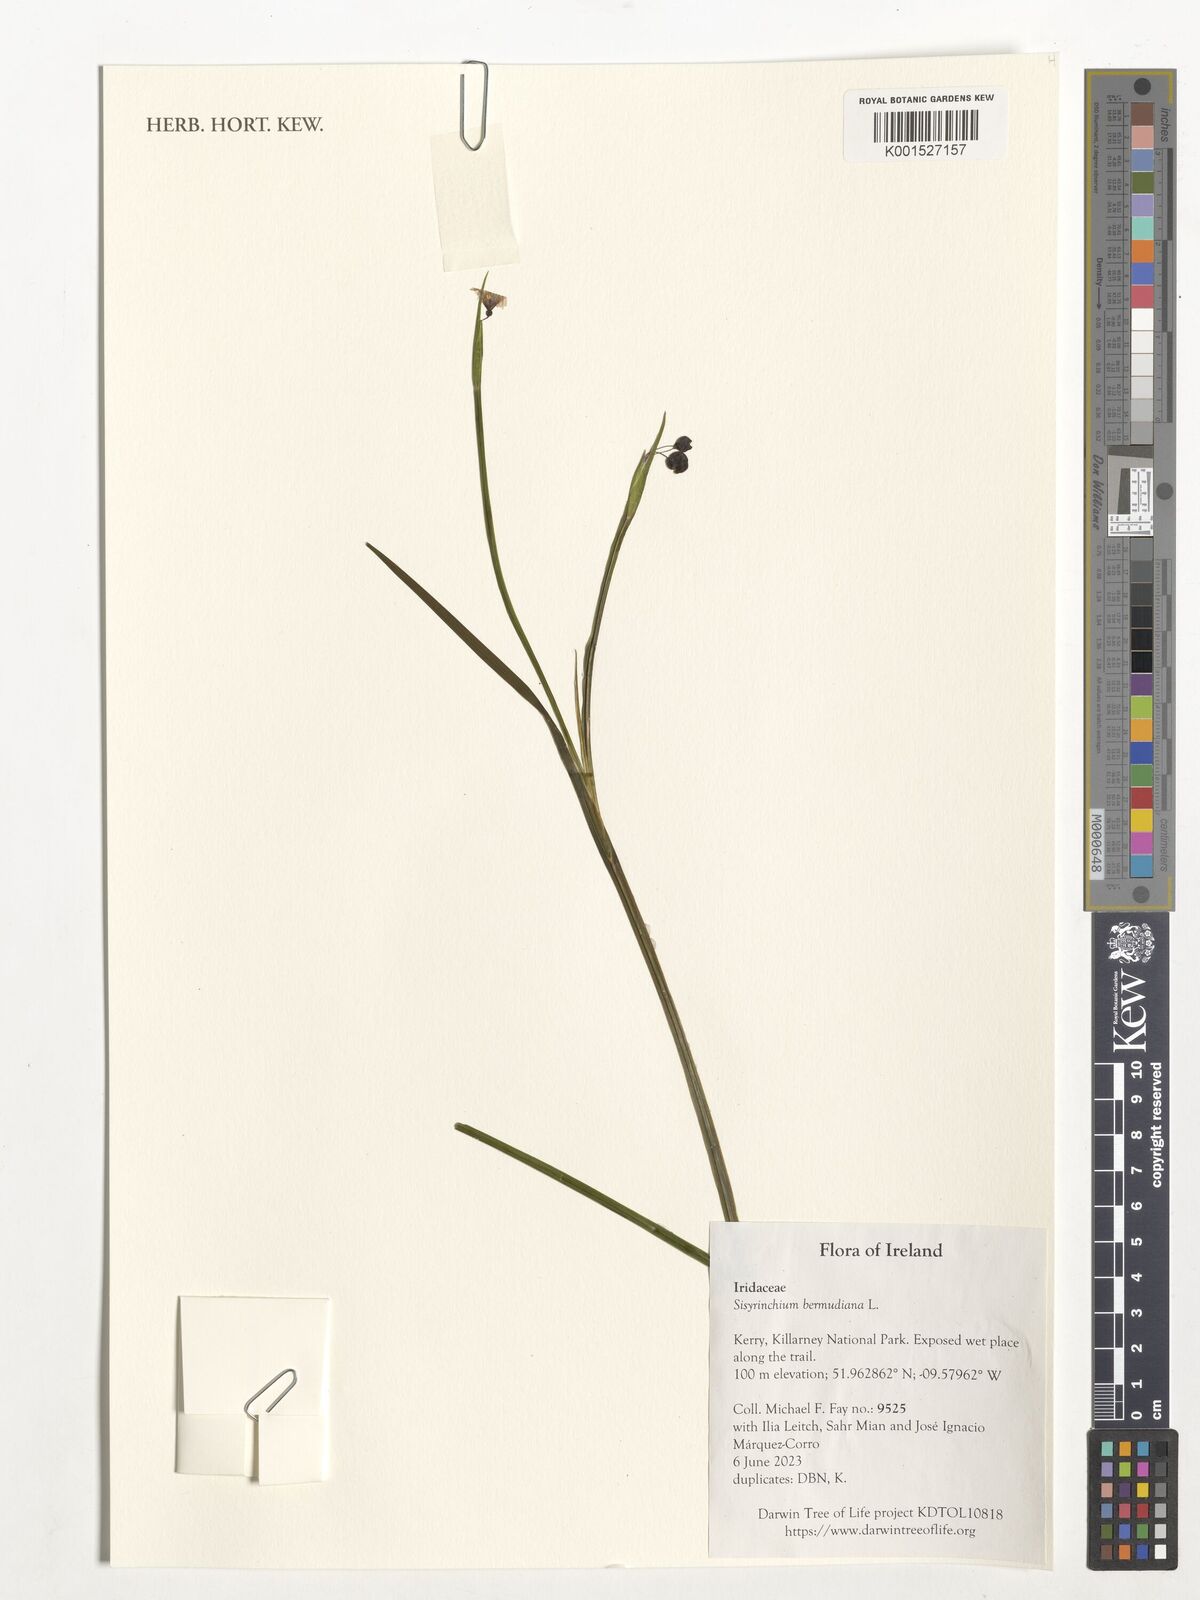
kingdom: Plantae
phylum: Tracheophyta
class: Liliopsida
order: Asparagales
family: Iridaceae
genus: Sisyrinchium
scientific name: Sisyrinchium bermudiana
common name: Blue-eyed-grass
